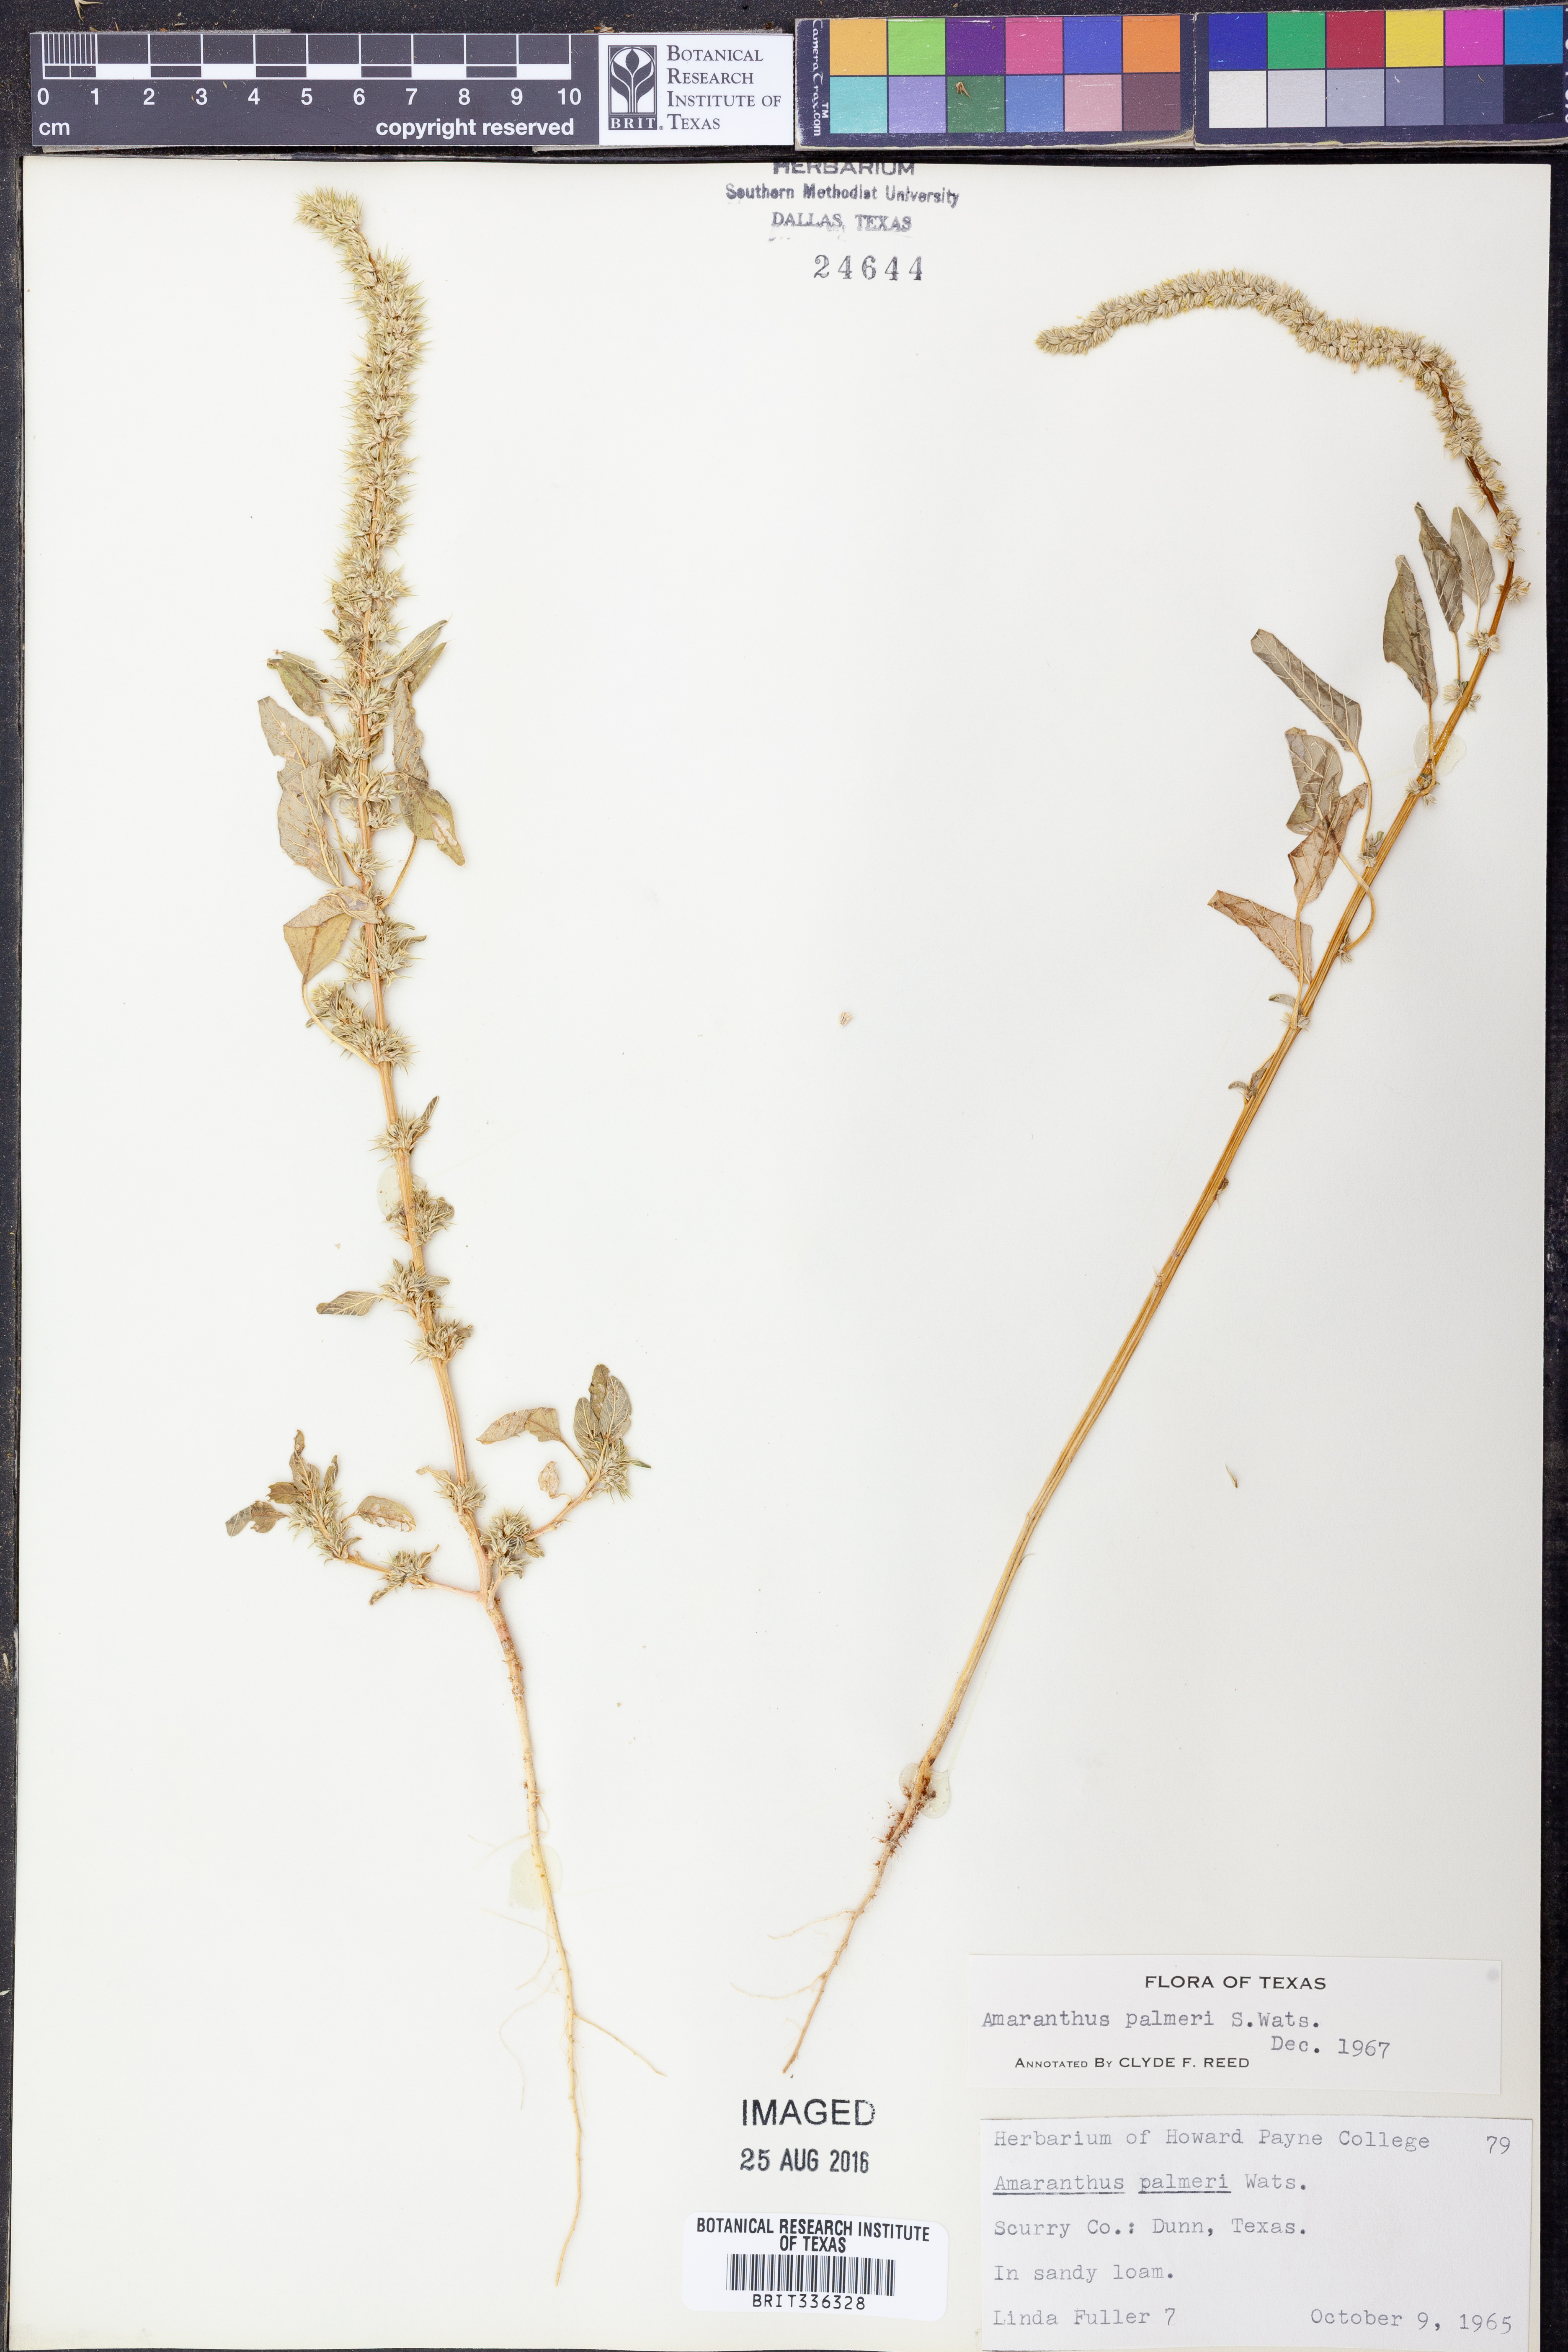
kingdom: Plantae
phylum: Tracheophyta
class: Magnoliopsida
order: Caryophyllales
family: Amaranthaceae
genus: Amaranthus
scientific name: Amaranthus palmeri
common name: Dioecious amaranth
